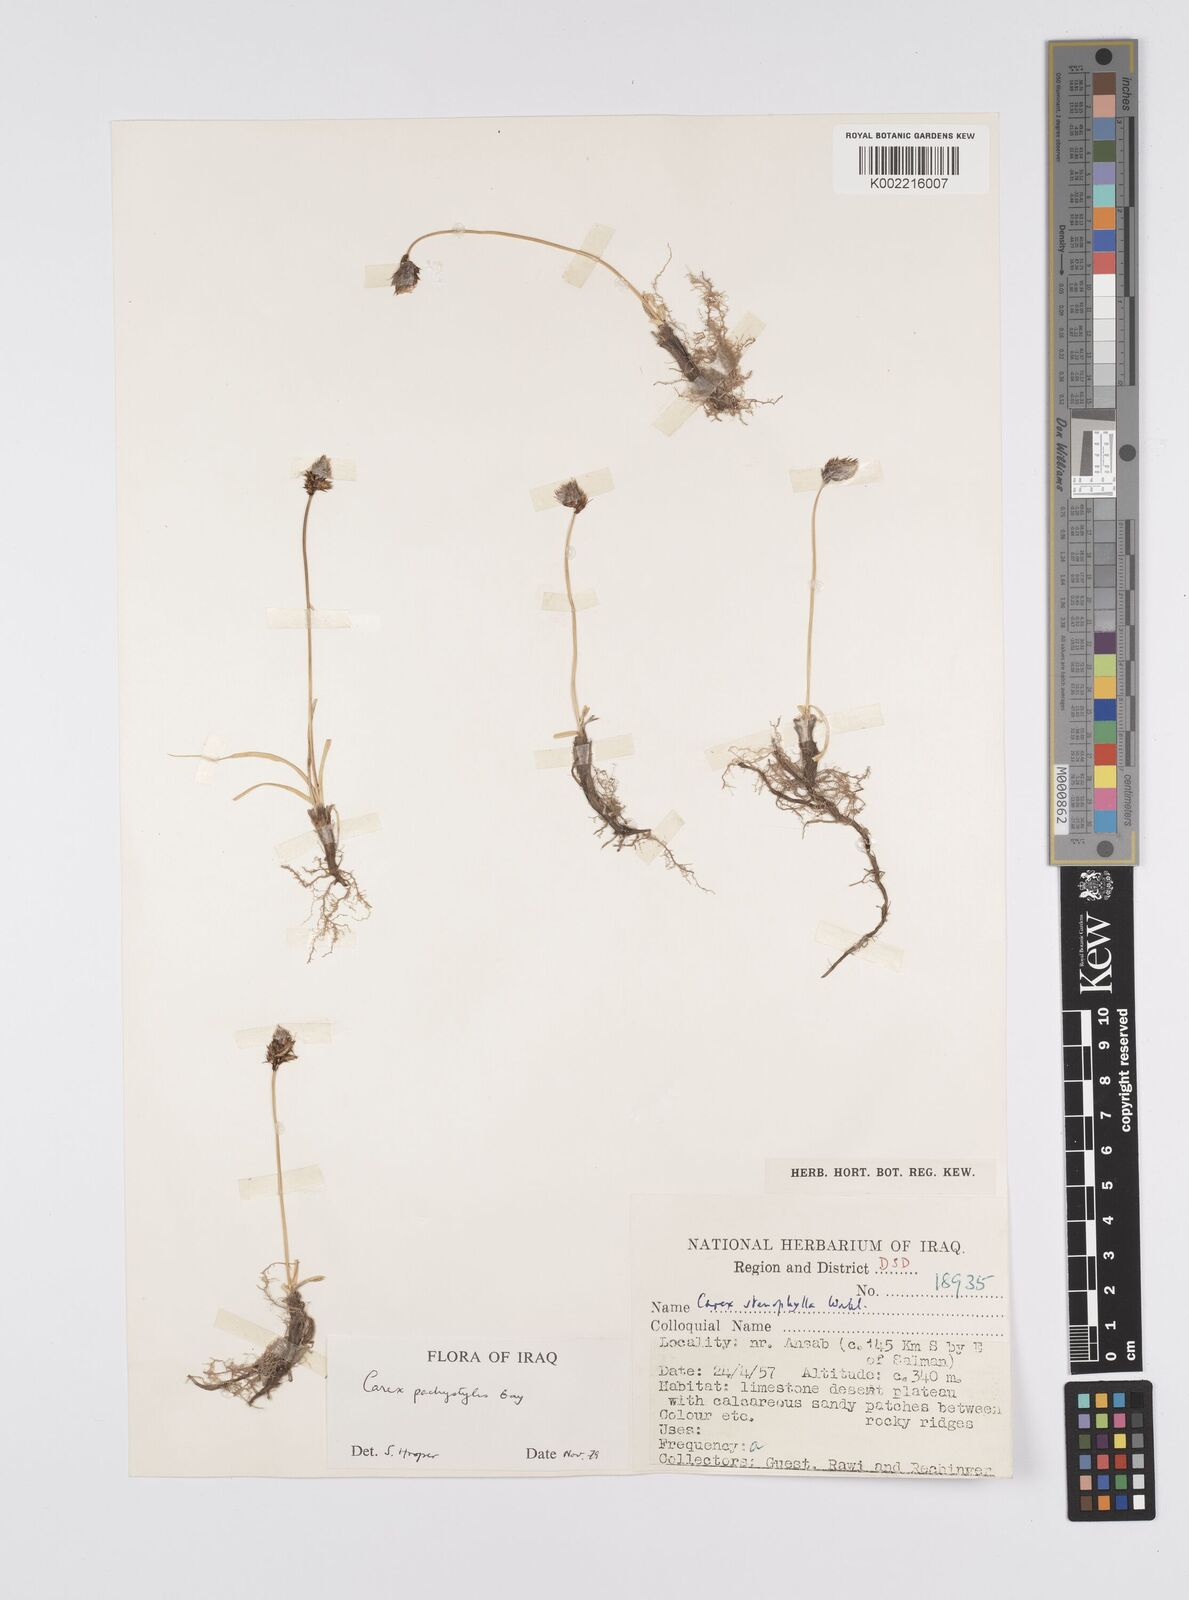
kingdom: Plantae
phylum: Tracheophyta
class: Liliopsida
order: Poales
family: Cyperaceae
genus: Carex
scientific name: Carex pachystylis
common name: Thick-stem sedge
